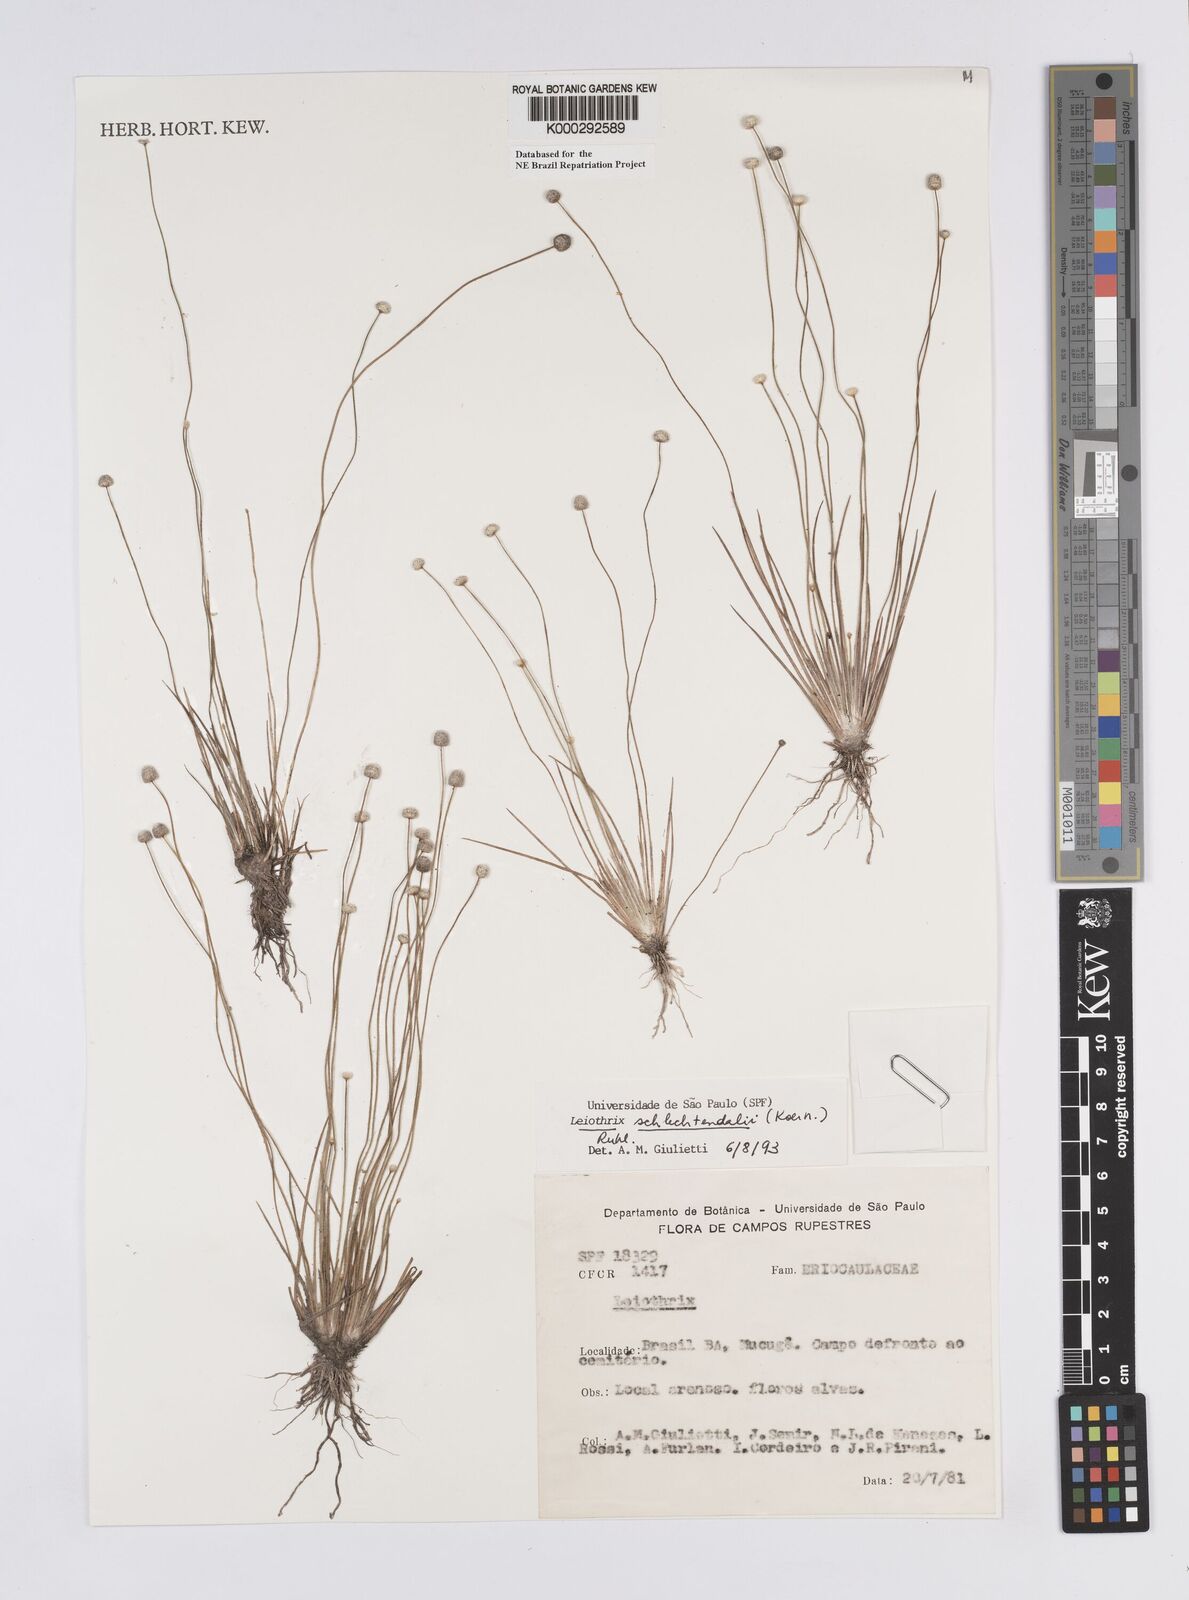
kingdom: Plantae
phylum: Tracheophyta
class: Liliopsida
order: Poales
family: Eriocaulaceae
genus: Leiothrix
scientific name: Leiothrix schlechtendalii
